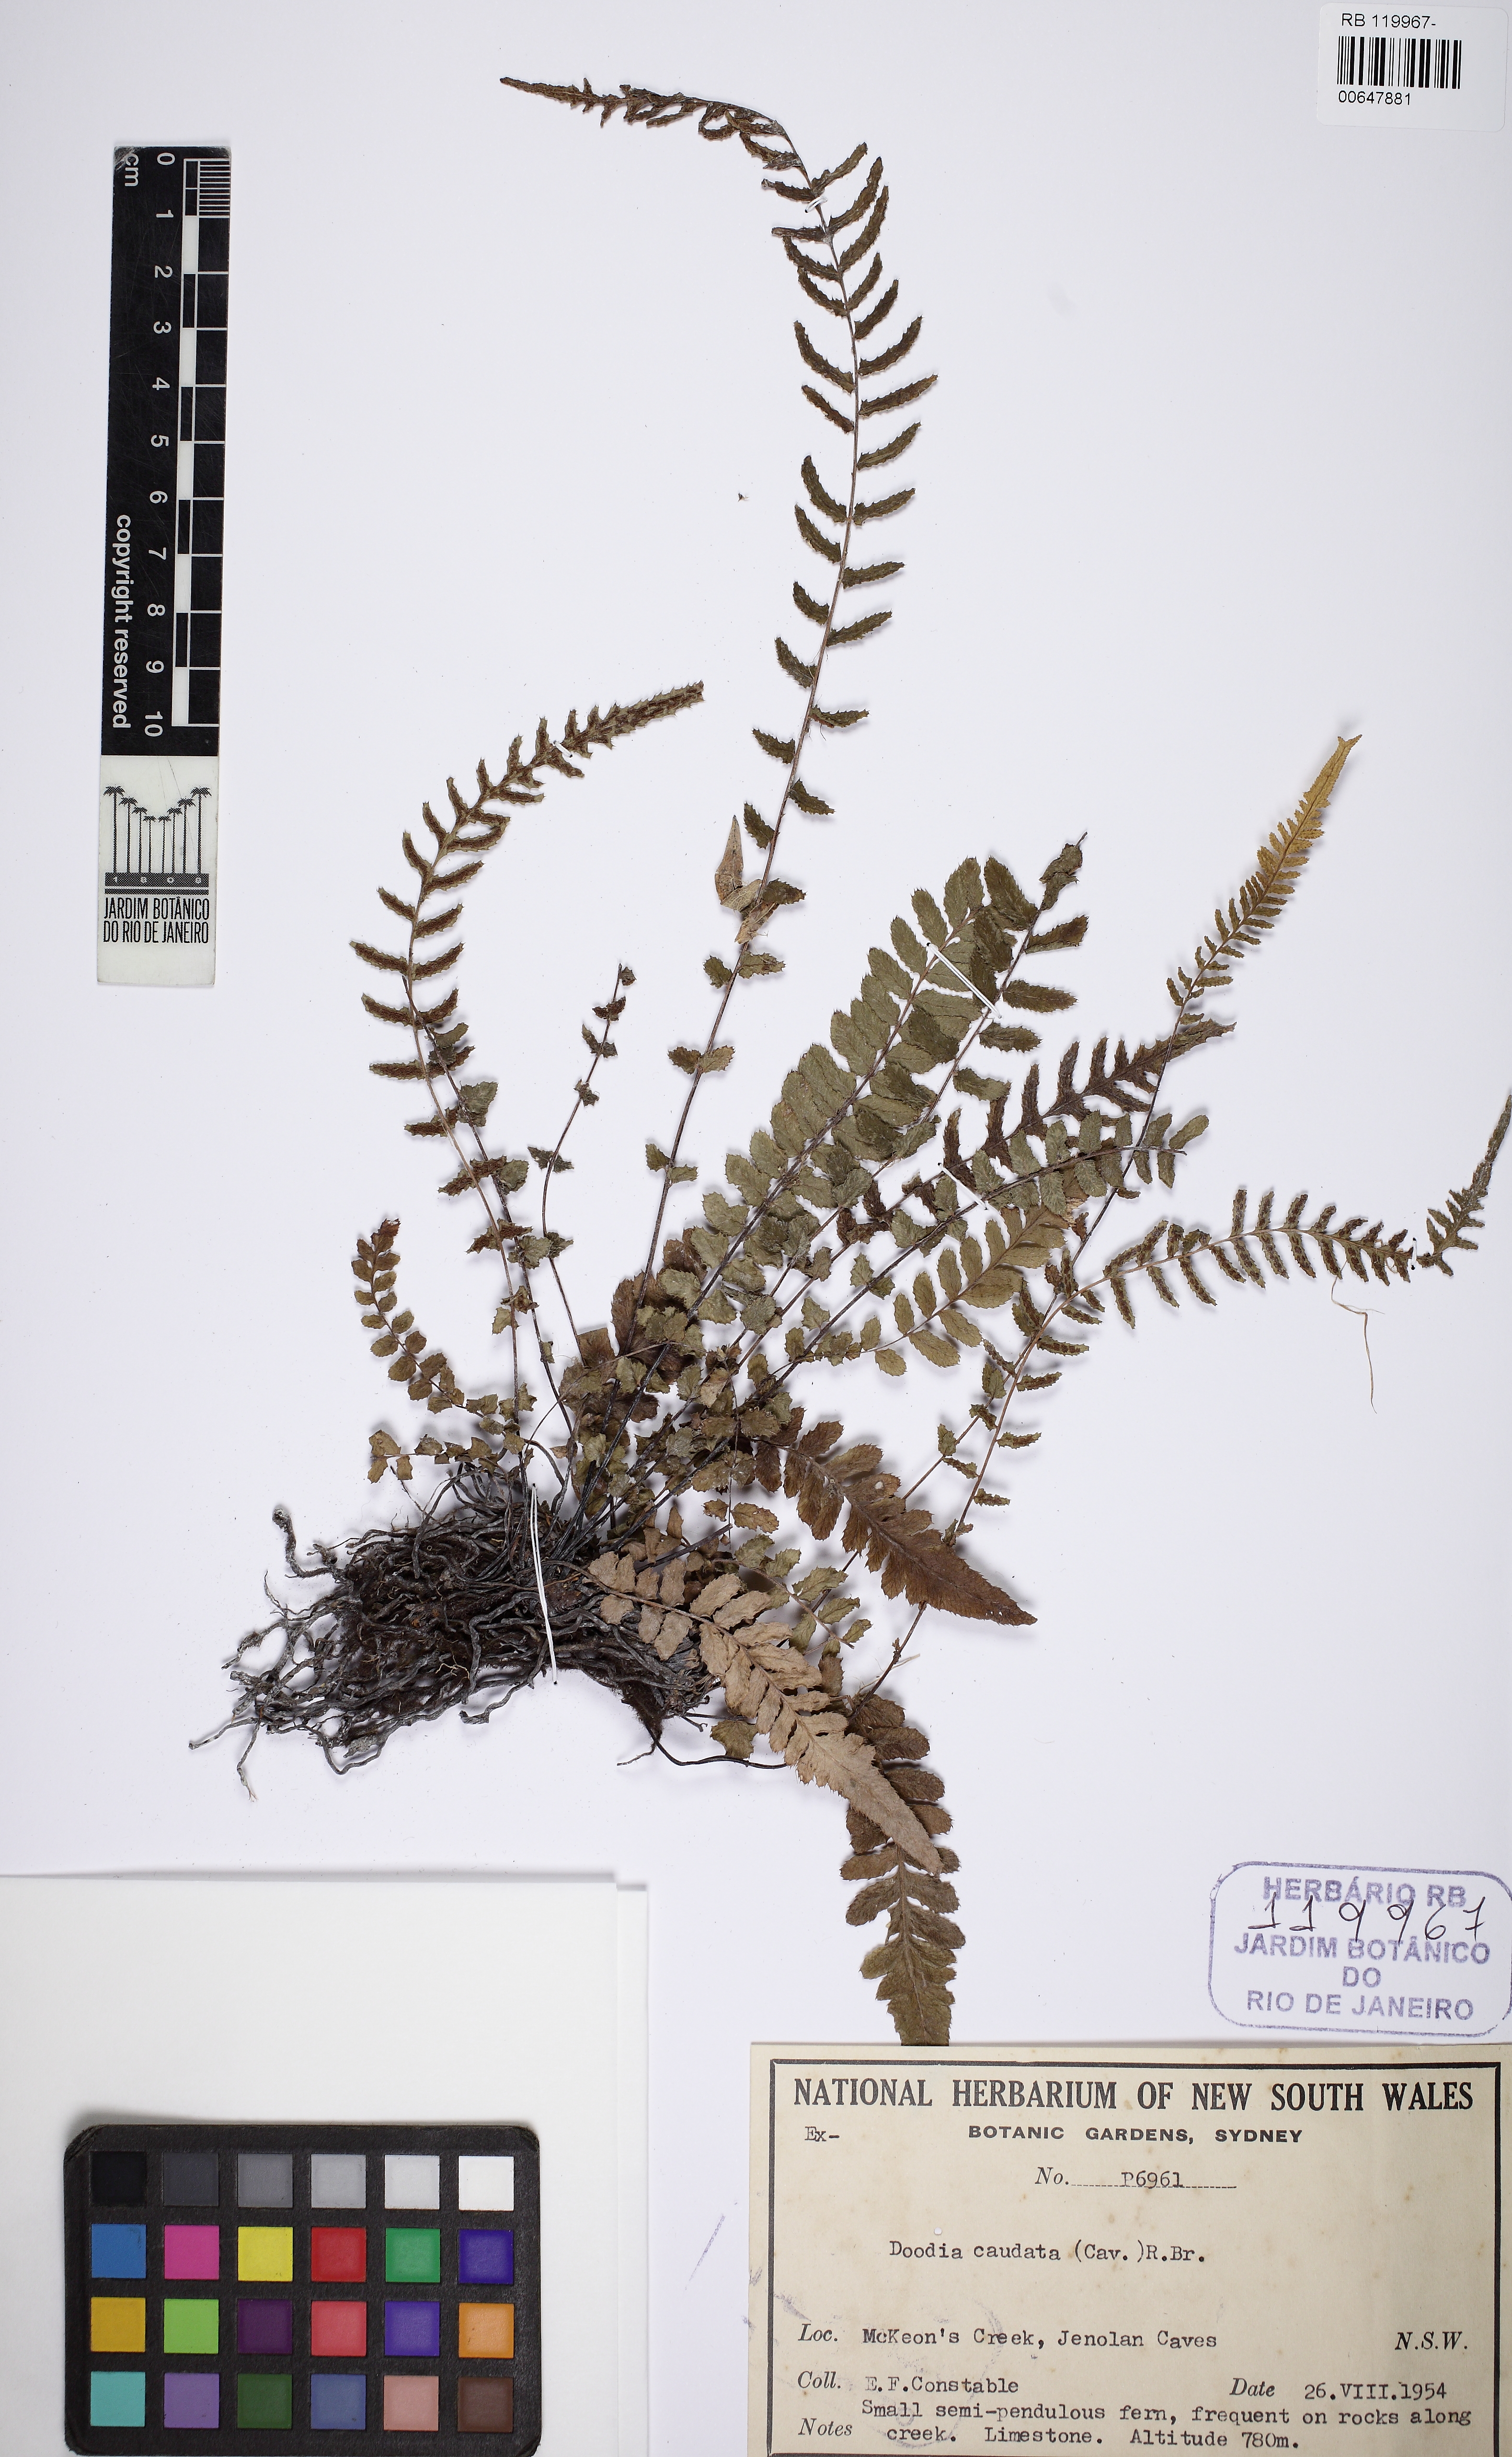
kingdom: Plantae
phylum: Tracheophyta
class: Polypodiopsida
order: Polypodiales
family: Blechnaceae
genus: Doodia
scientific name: Doodia caudata
